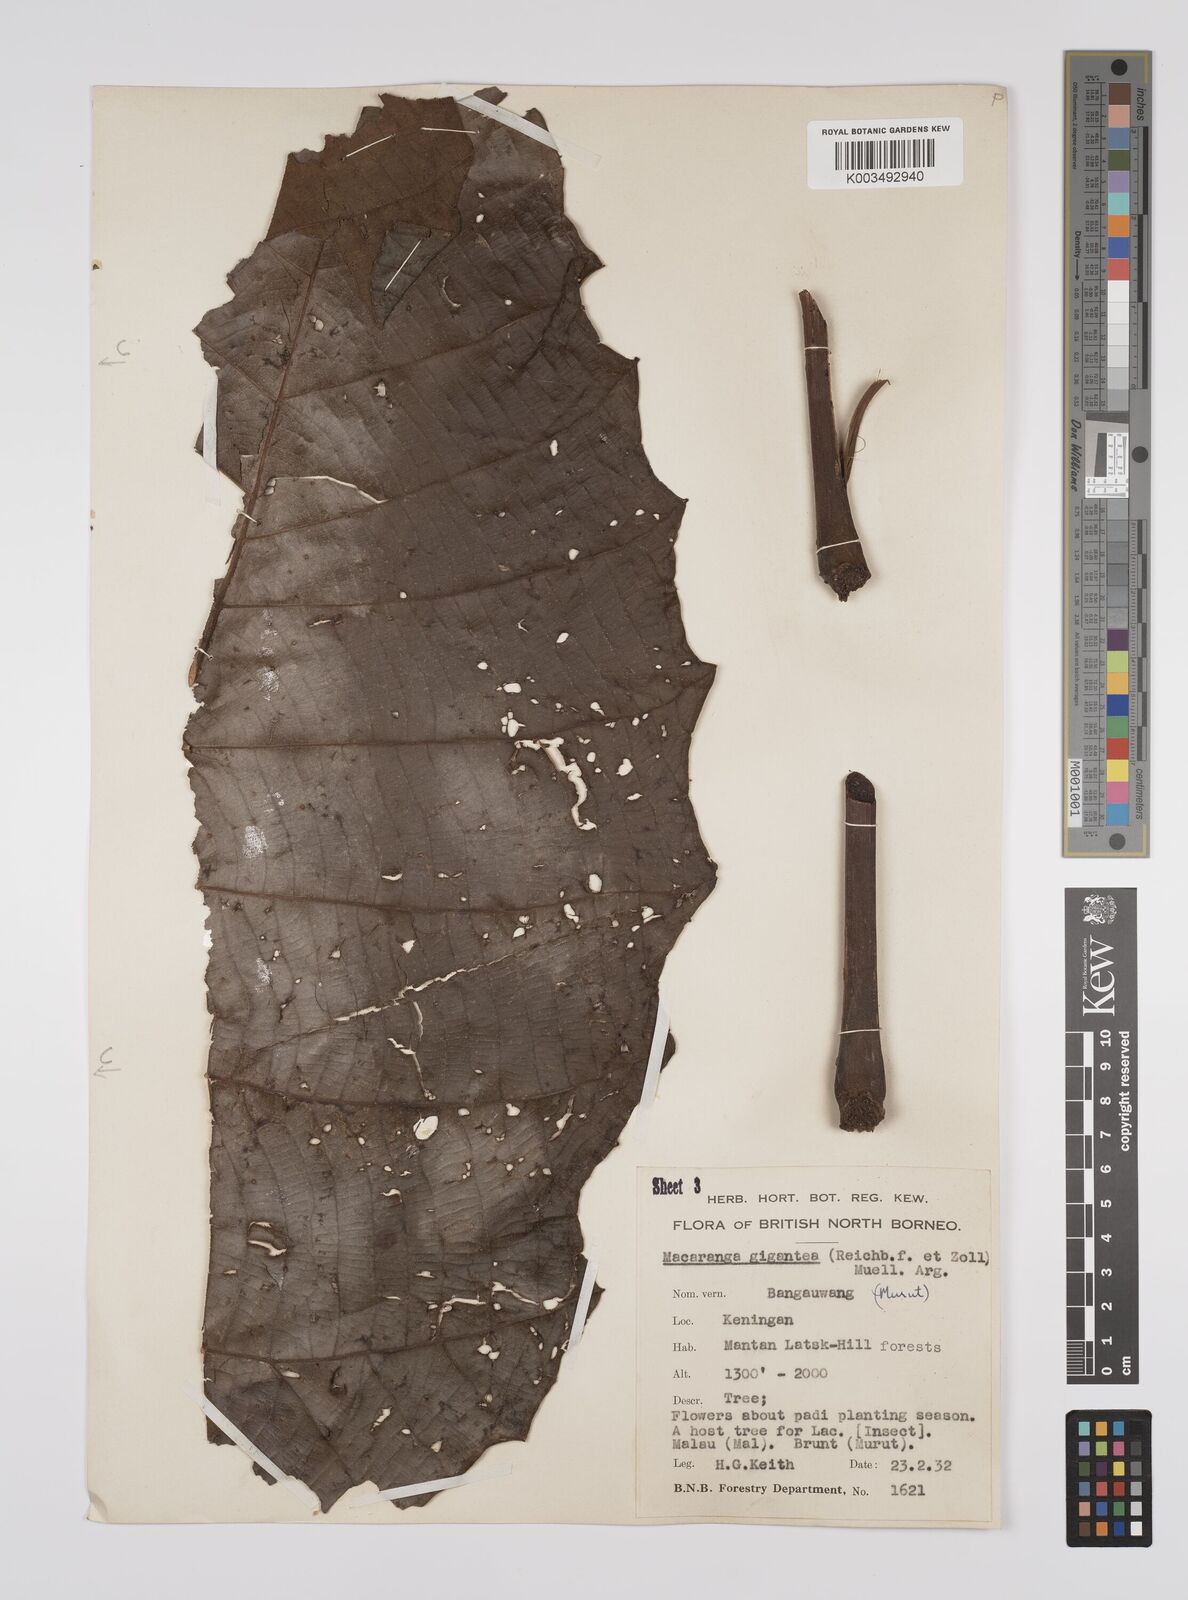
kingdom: Plantae
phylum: Tracheophyta
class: Magnoliopsida
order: Malpighiales
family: Euphorbiaceae
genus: Macaranga
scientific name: Macaranga gigantea
